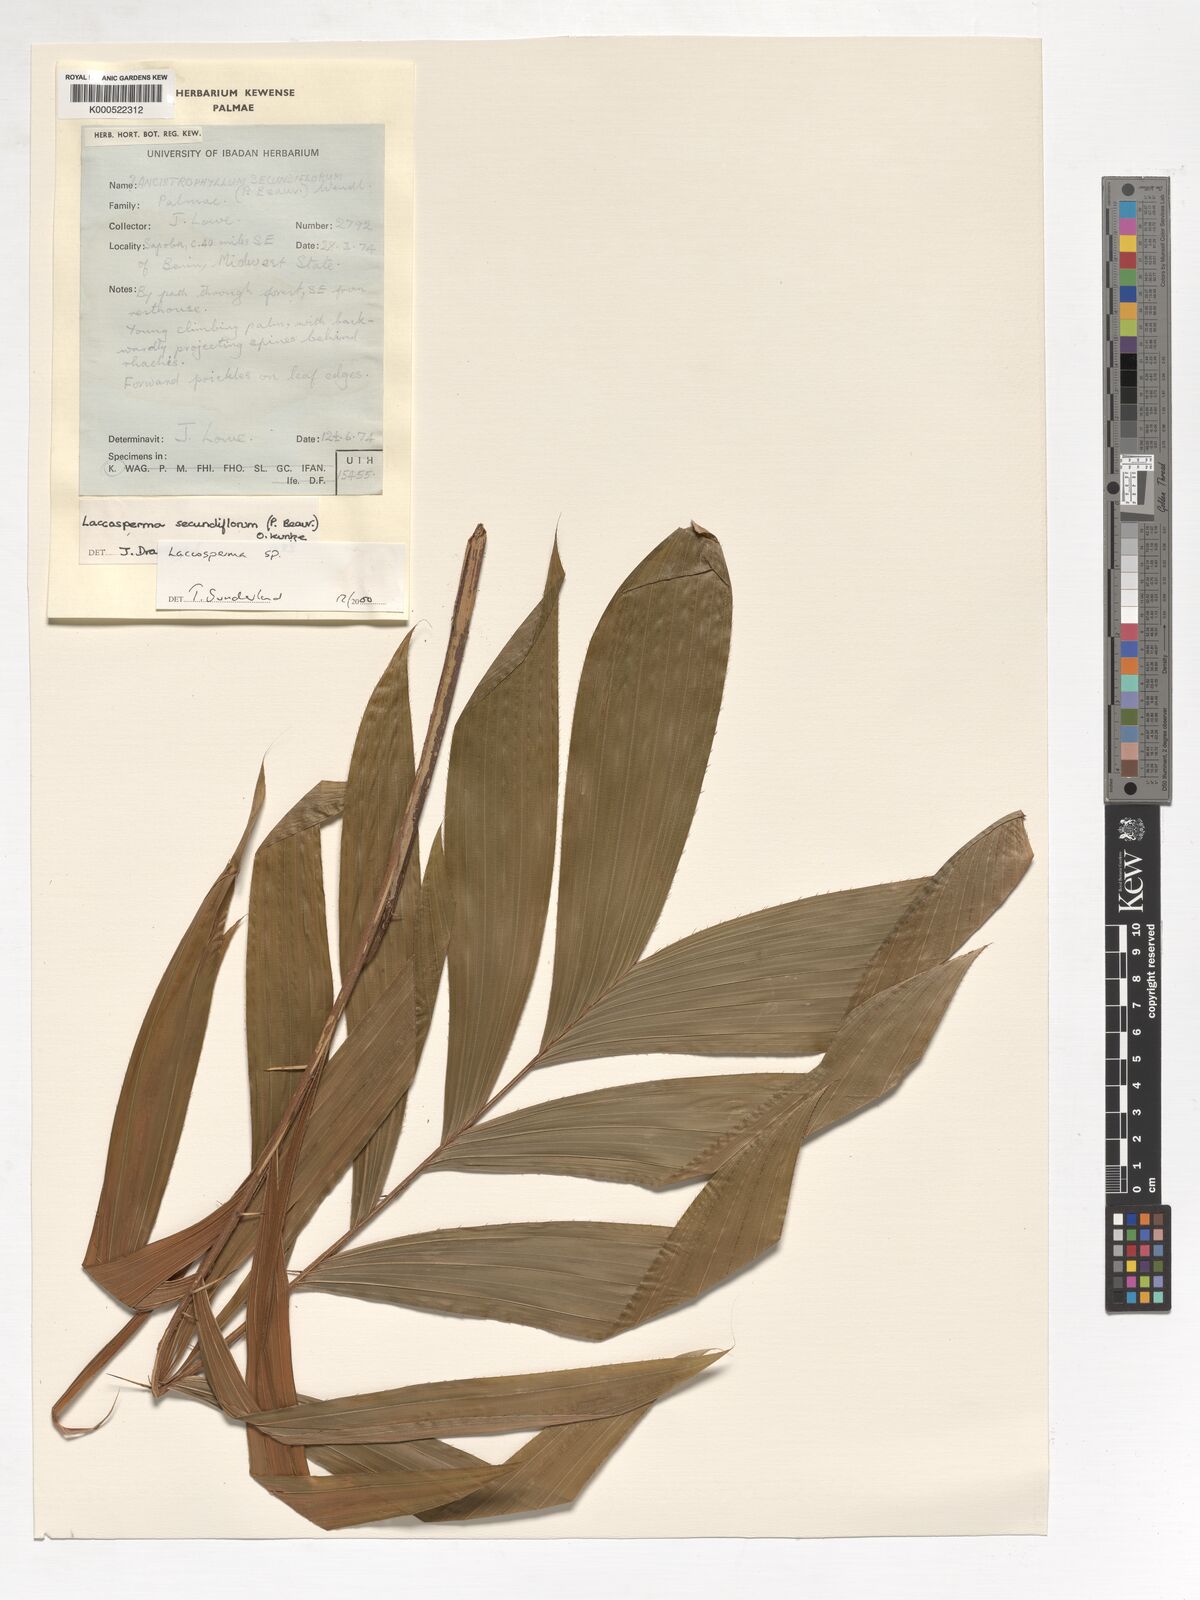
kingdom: Plantae
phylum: Tracheophyta
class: Liliopsida
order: Arecales
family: Arecaceae
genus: Laccosperma
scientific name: Laccosperma secundiflorum
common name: Rattan
